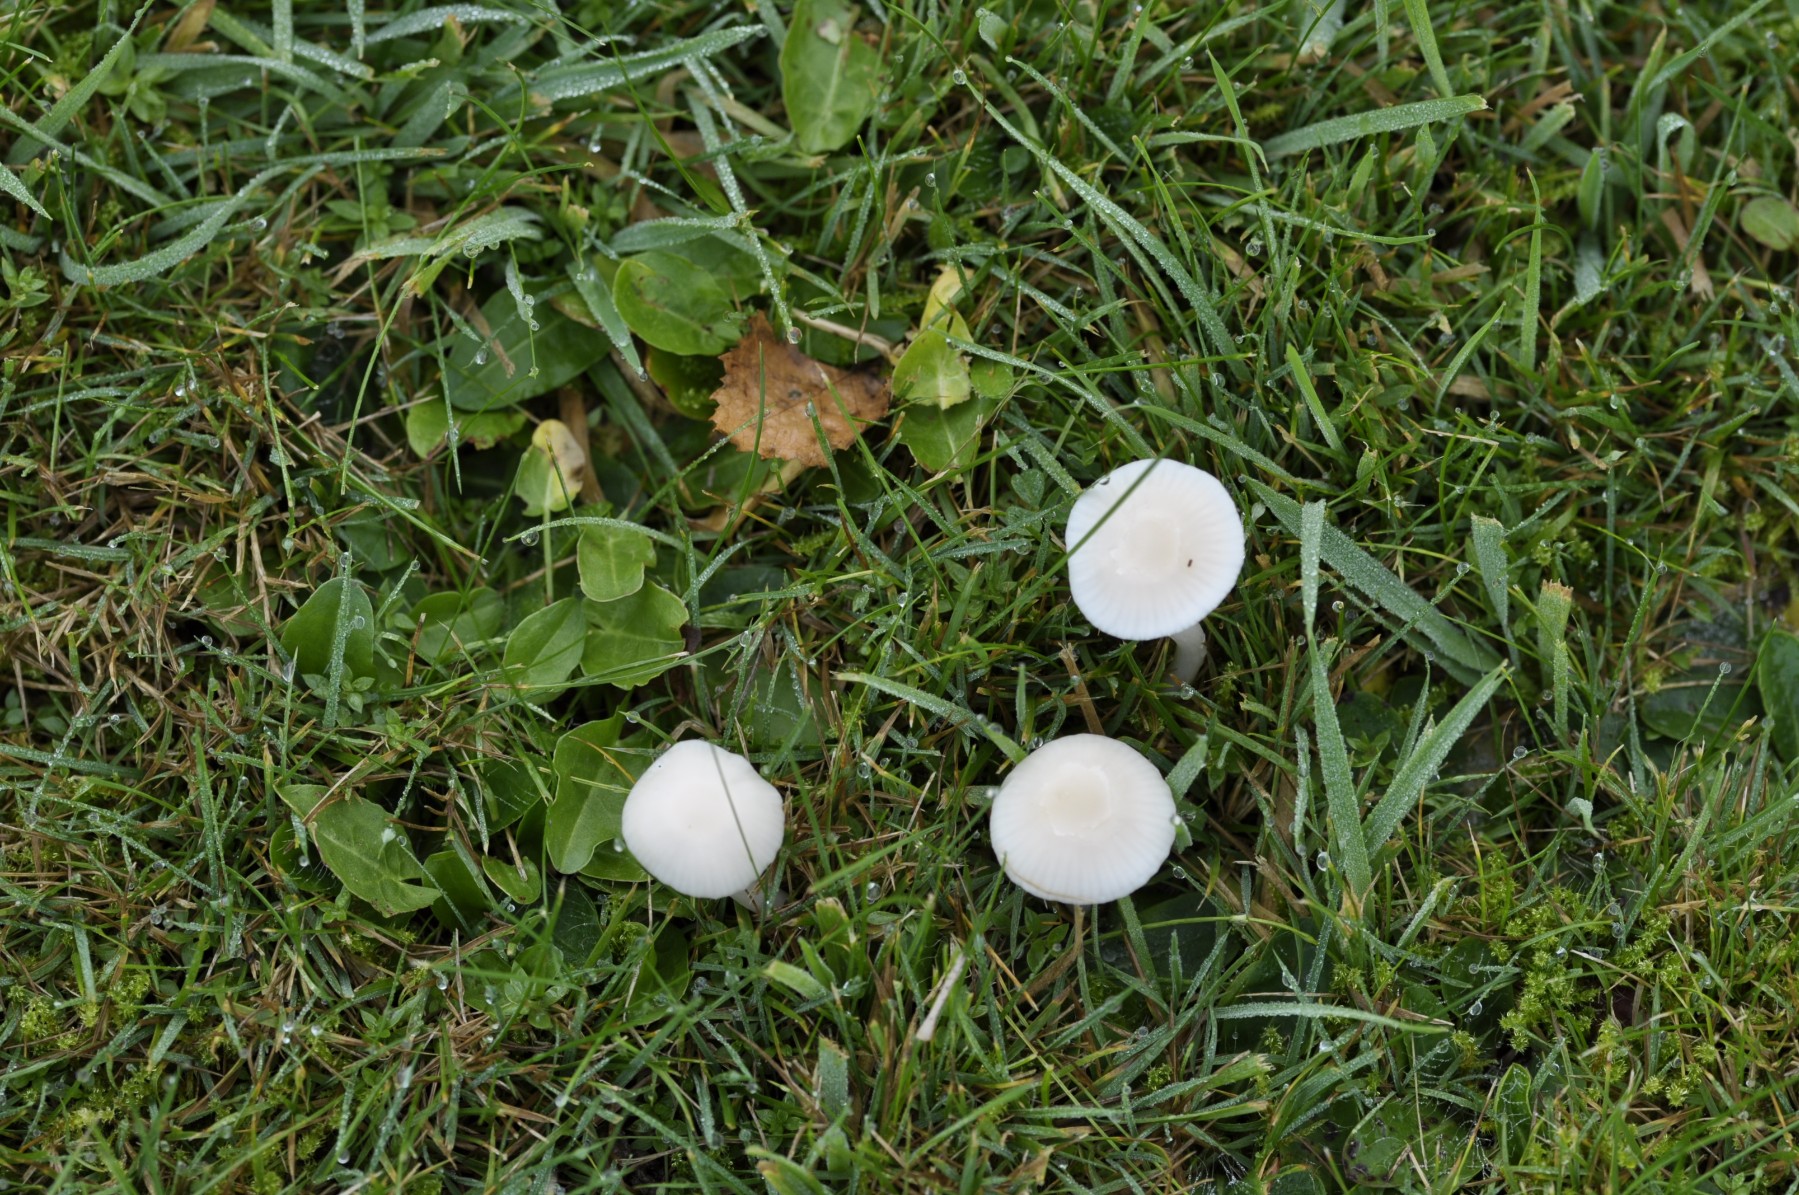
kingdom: Fungi
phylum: Basidiomycota
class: Agaricomycetes
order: Agaricales
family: Hygrophoraceae
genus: Cuphophyllus
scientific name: Cuphophyllus virgineus
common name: snehvid vokshat
